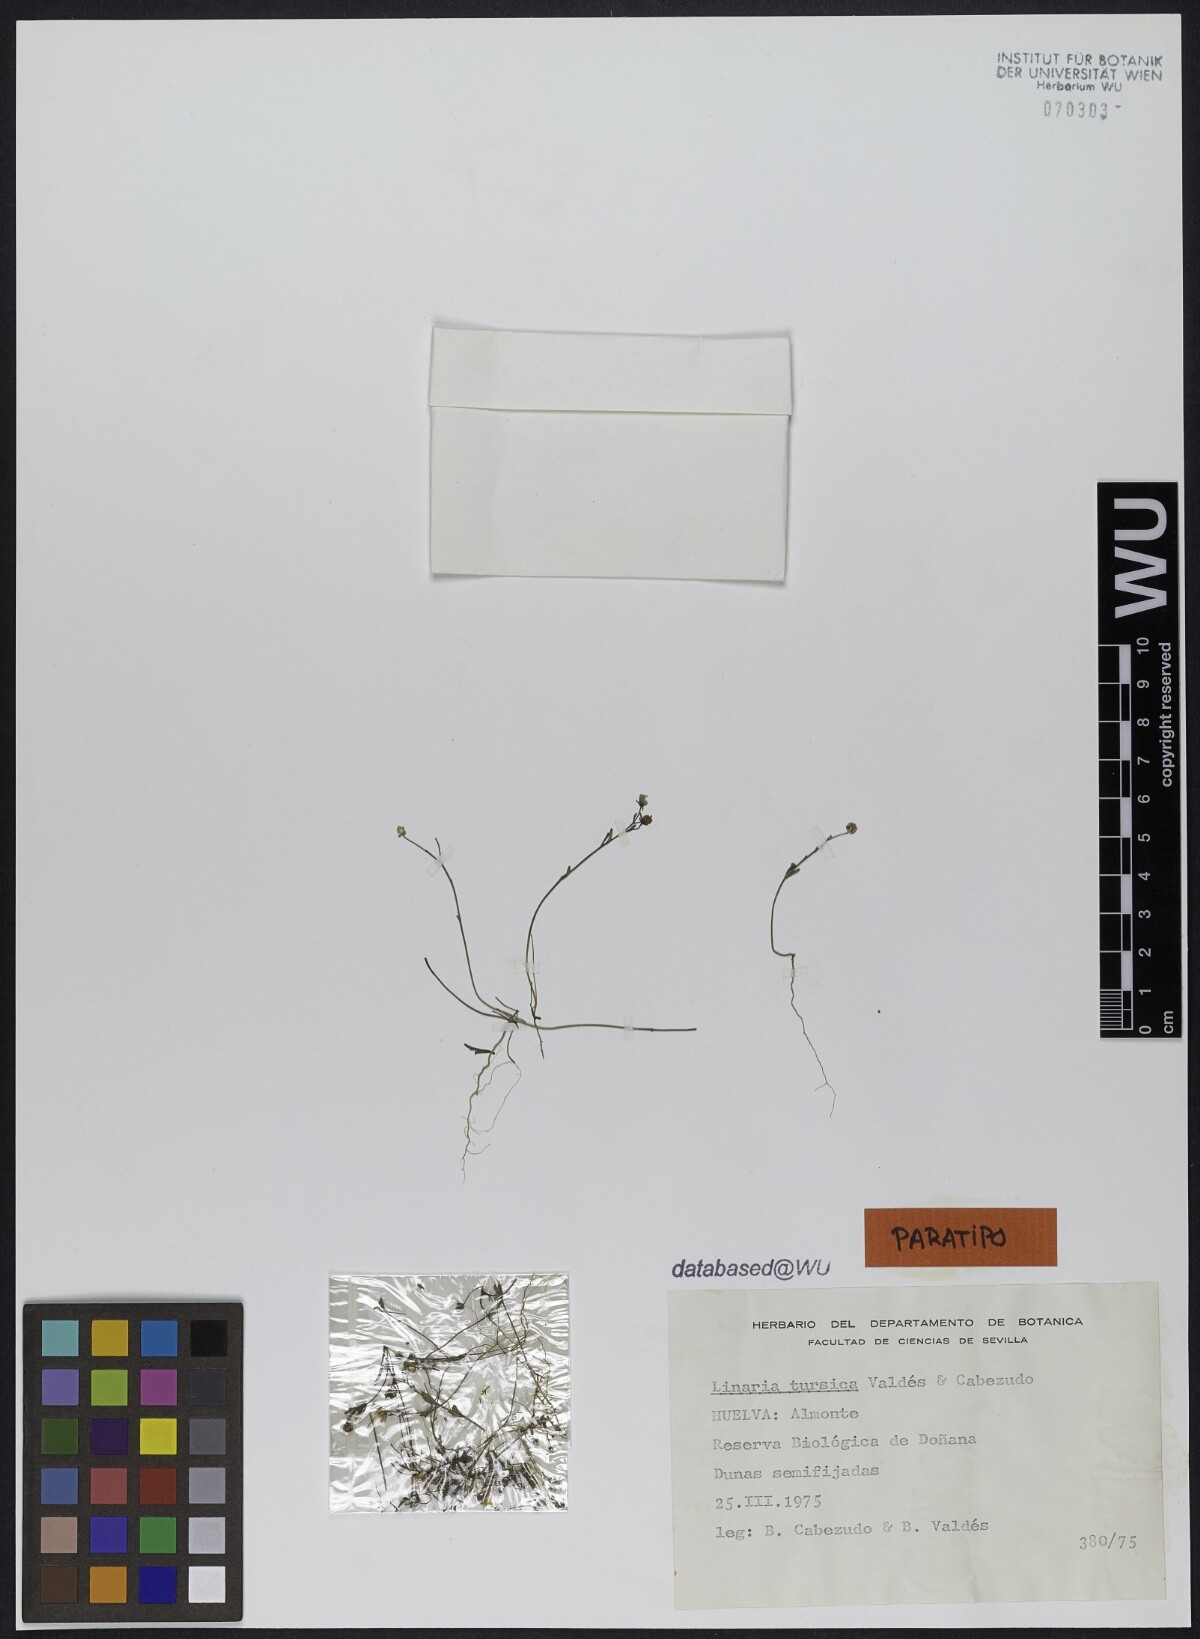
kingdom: Plantae
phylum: Tracheophyta
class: Magnoliopsida
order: Lamiales
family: Plantaginaceae
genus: Linaria
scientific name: Linaria tursica
